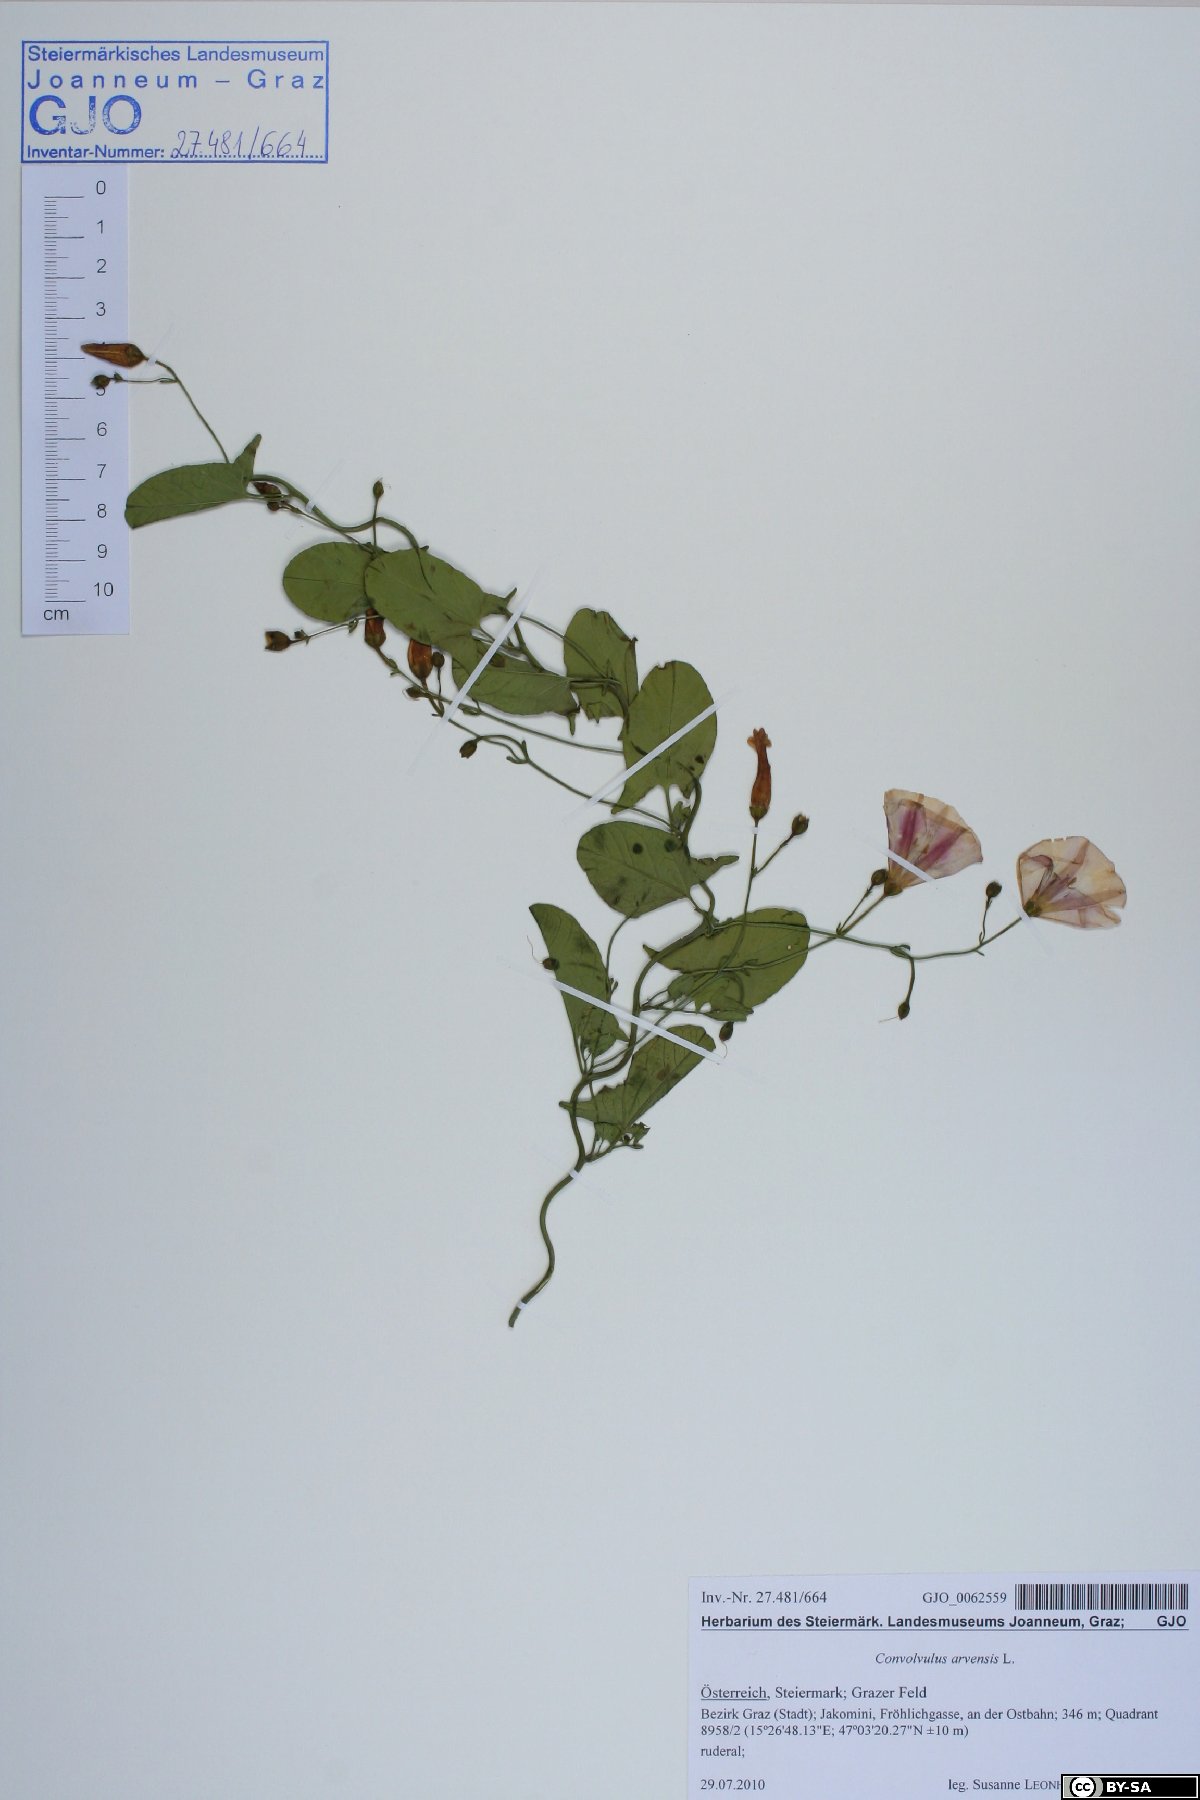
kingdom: Plantae
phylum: Tracheophyta
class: Magnoliopsida
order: Solanales
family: Convolvulaceae
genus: Convolvulus
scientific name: Convolvulus arvensis
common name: Field bindweed
